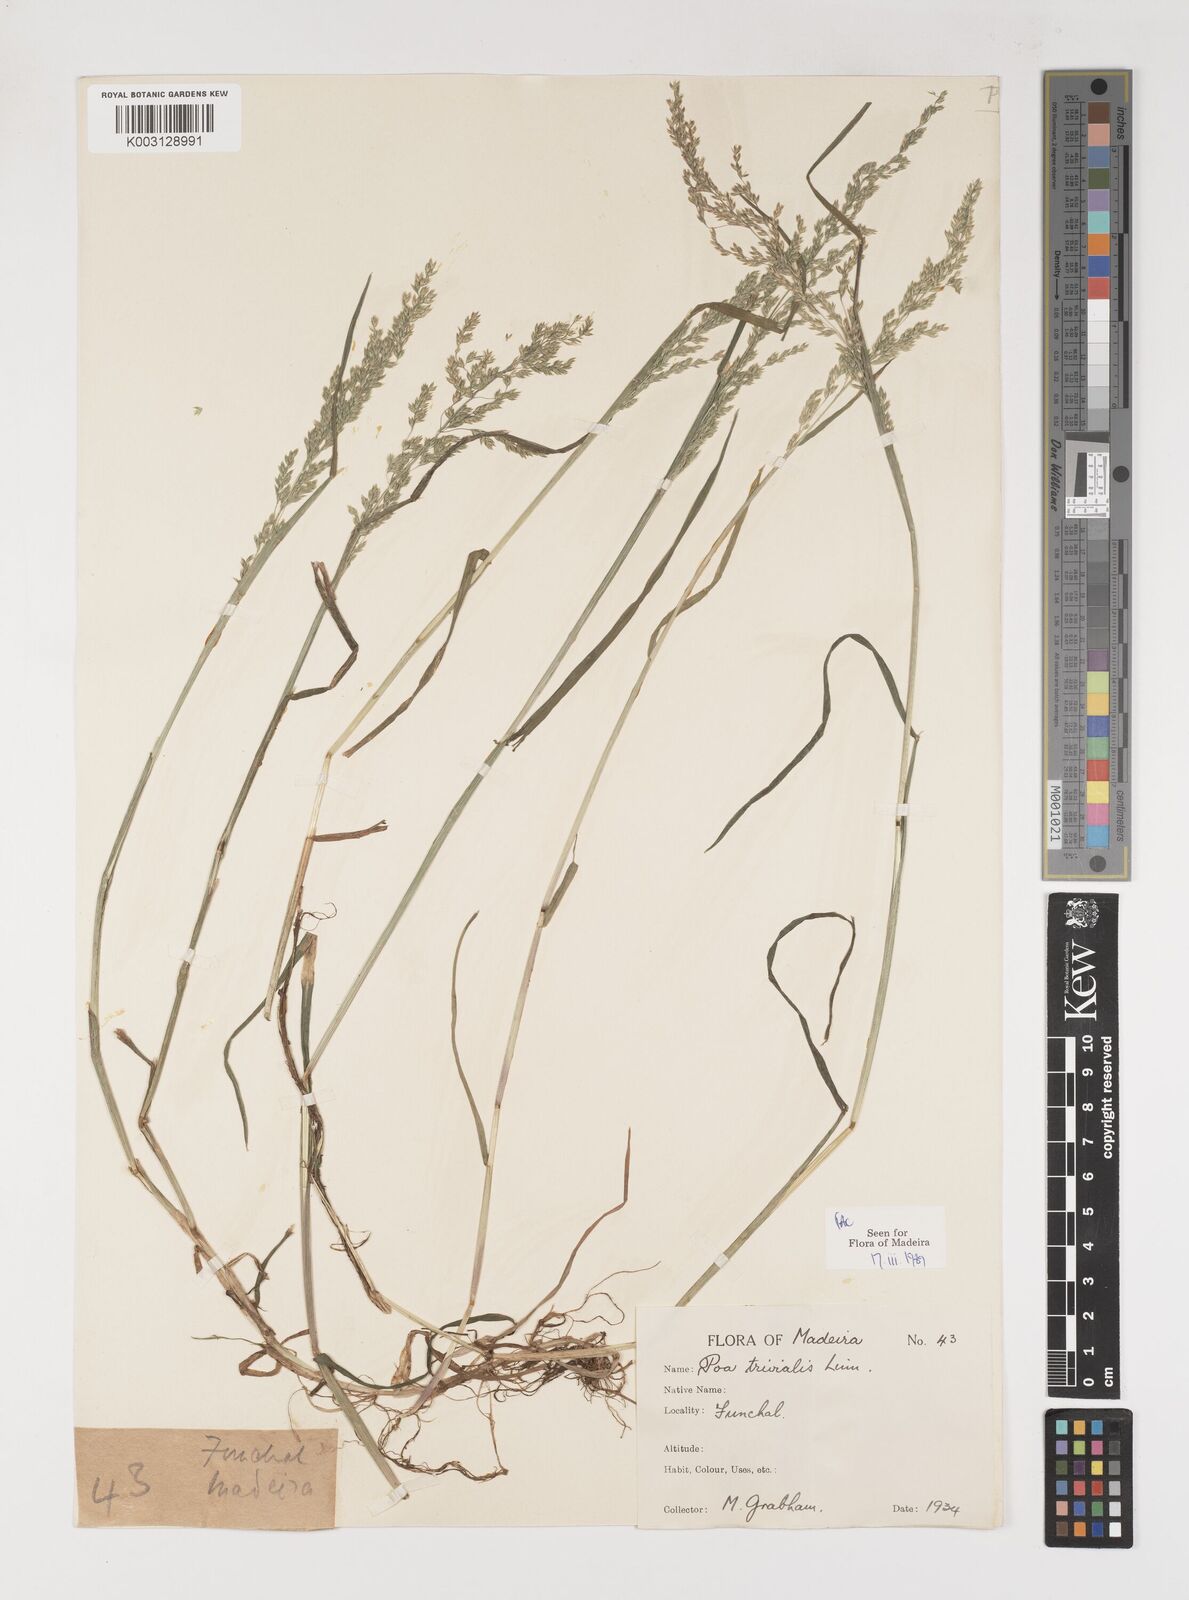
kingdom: Plantae
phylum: Tracheophyta
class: Liliopsida
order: Poales
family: Poaceae
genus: Poa
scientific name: Poa trivialis
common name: Rough bluegrass
